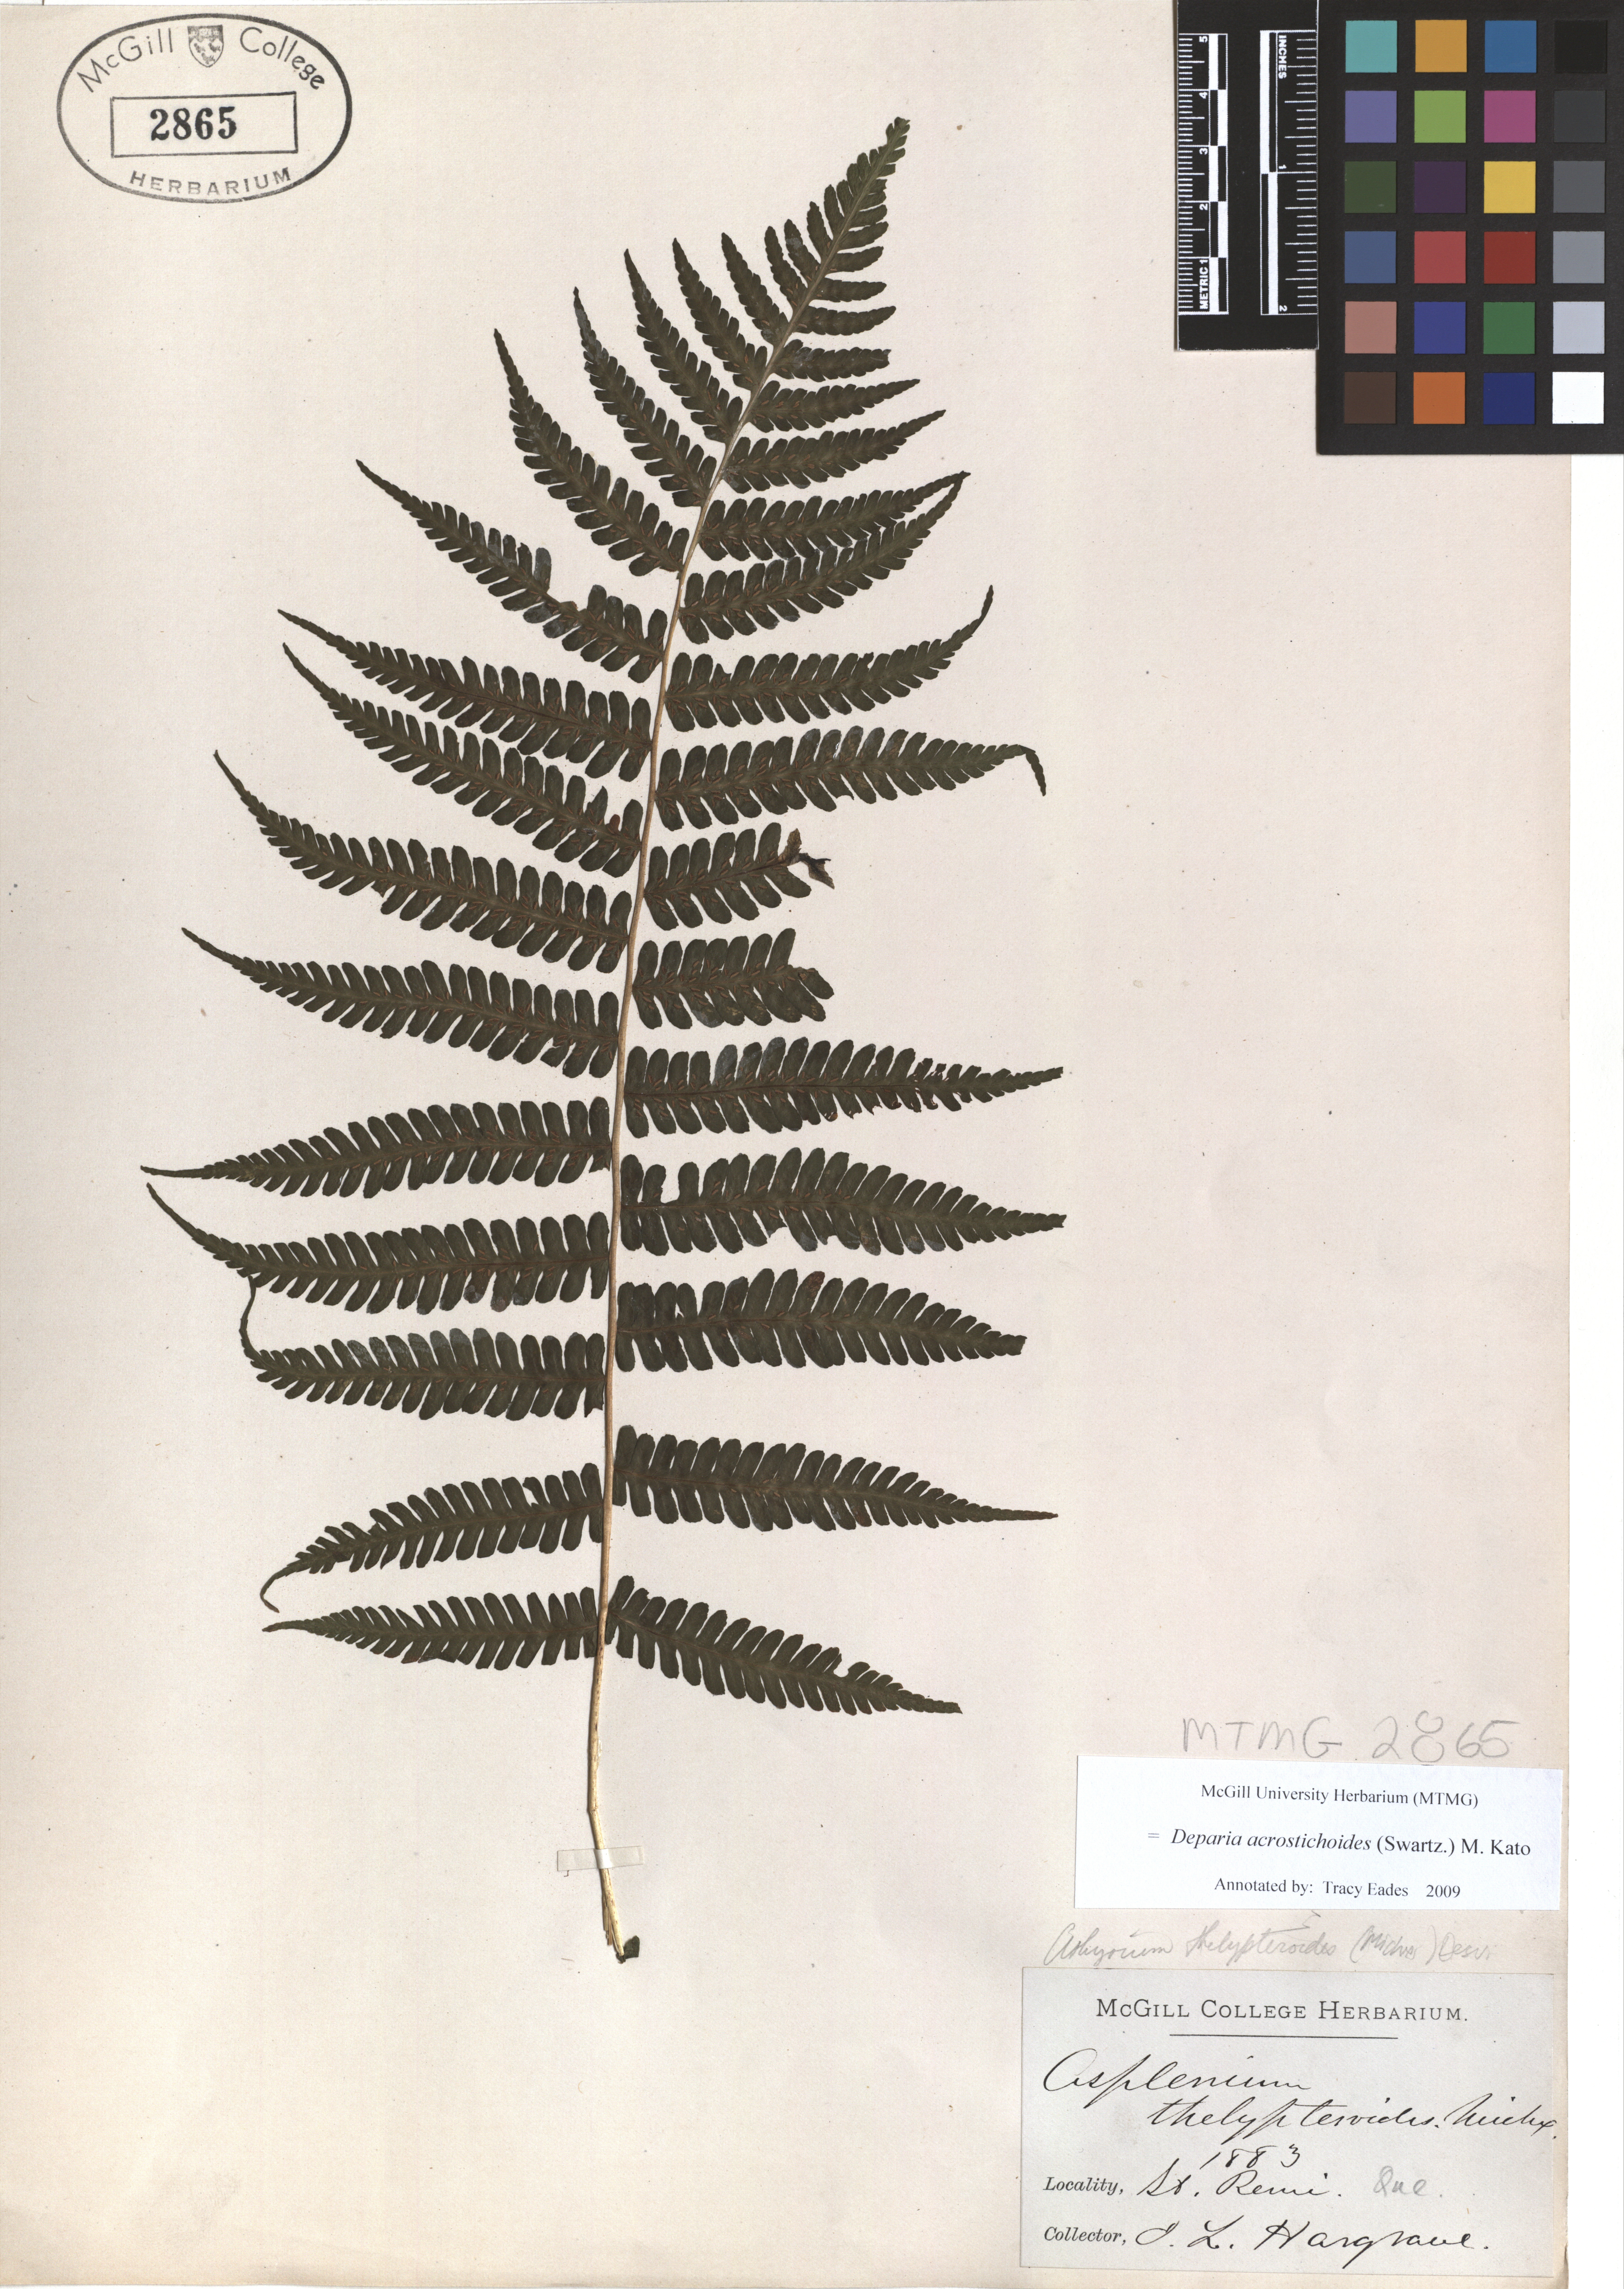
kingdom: Plantae
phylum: Tracheophyta
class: Polypodiopsida
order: Polypodiales
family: Athyriaceae
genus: Deparia
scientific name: Deparia acrostichoides
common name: Silver false spleenwort
